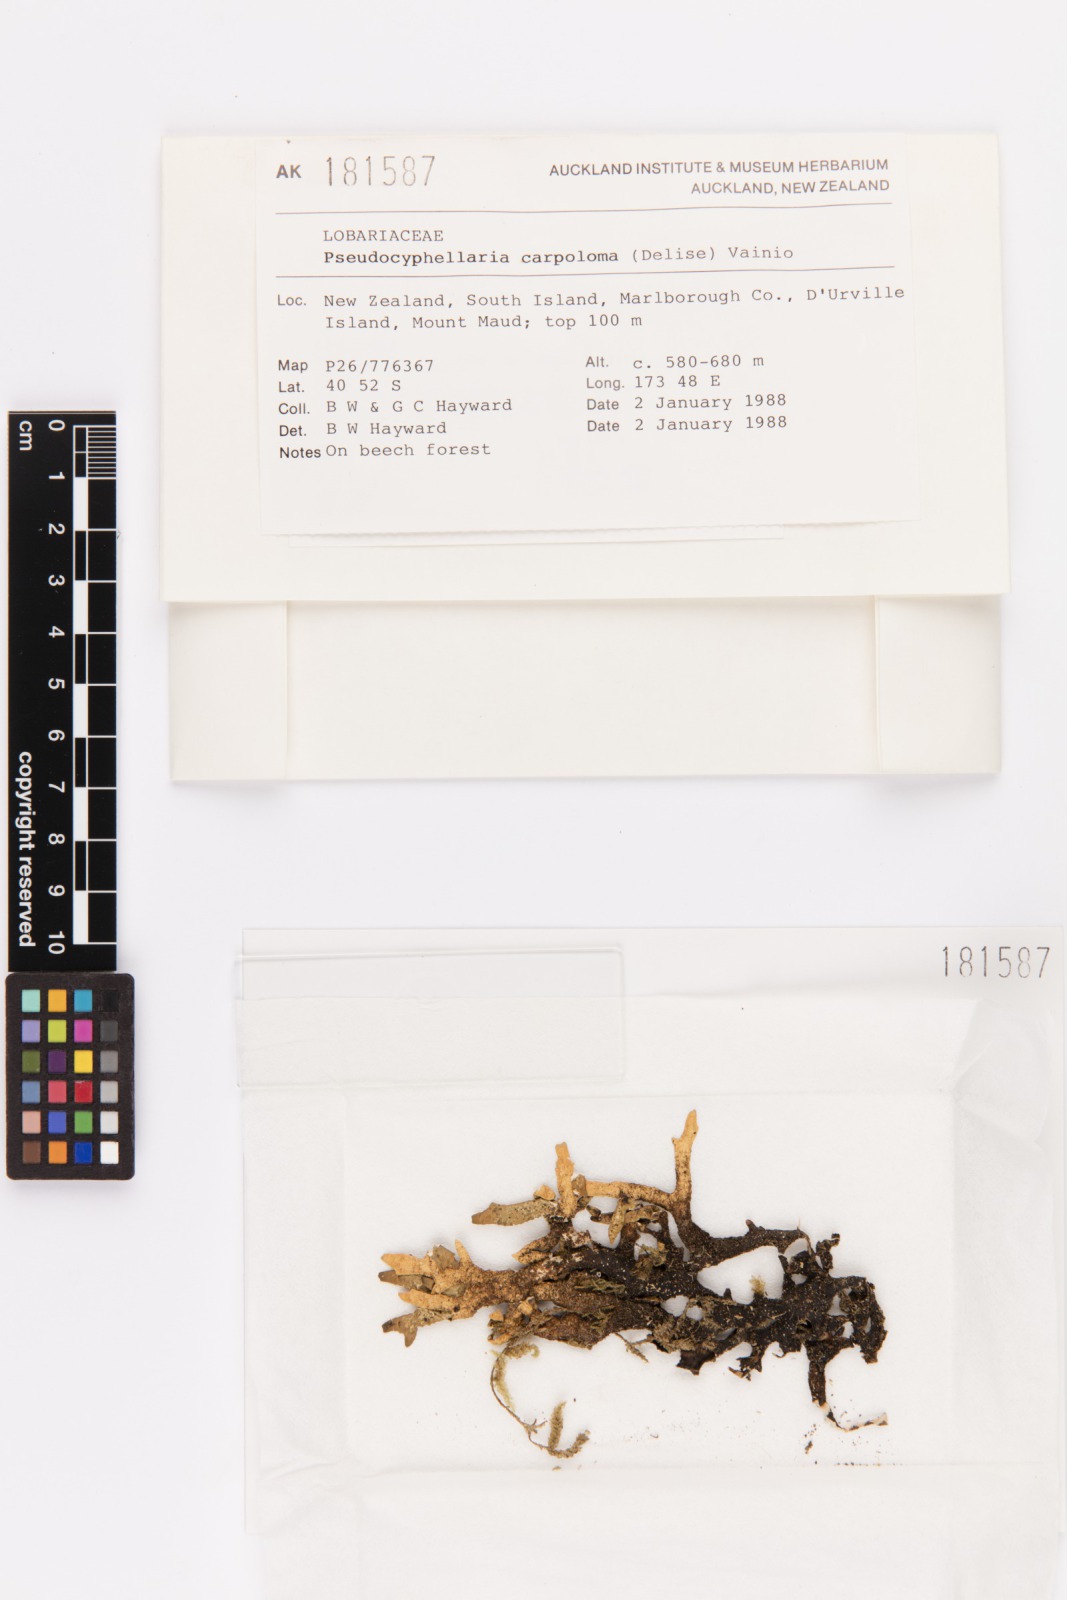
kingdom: Fungi
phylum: Ascomycota
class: Lecanoromycetes
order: Peltigerales
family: Lobariaceae
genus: Pseudocyphellaria
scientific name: Pseudocyphellaria carpoloma
